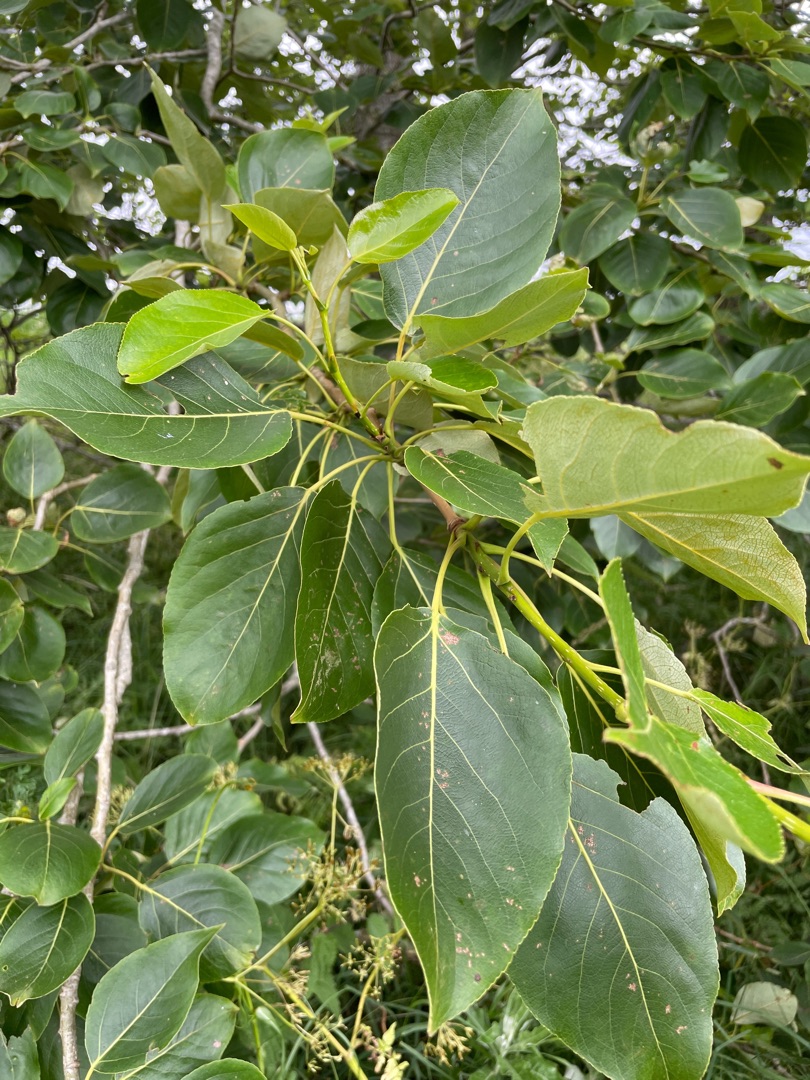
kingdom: Plantae
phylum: Tracheophyta
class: Magnoliopsida
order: Malpighiales
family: Salicaceae
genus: Populus
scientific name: Populus balsamifera
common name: Balsam-poppel
